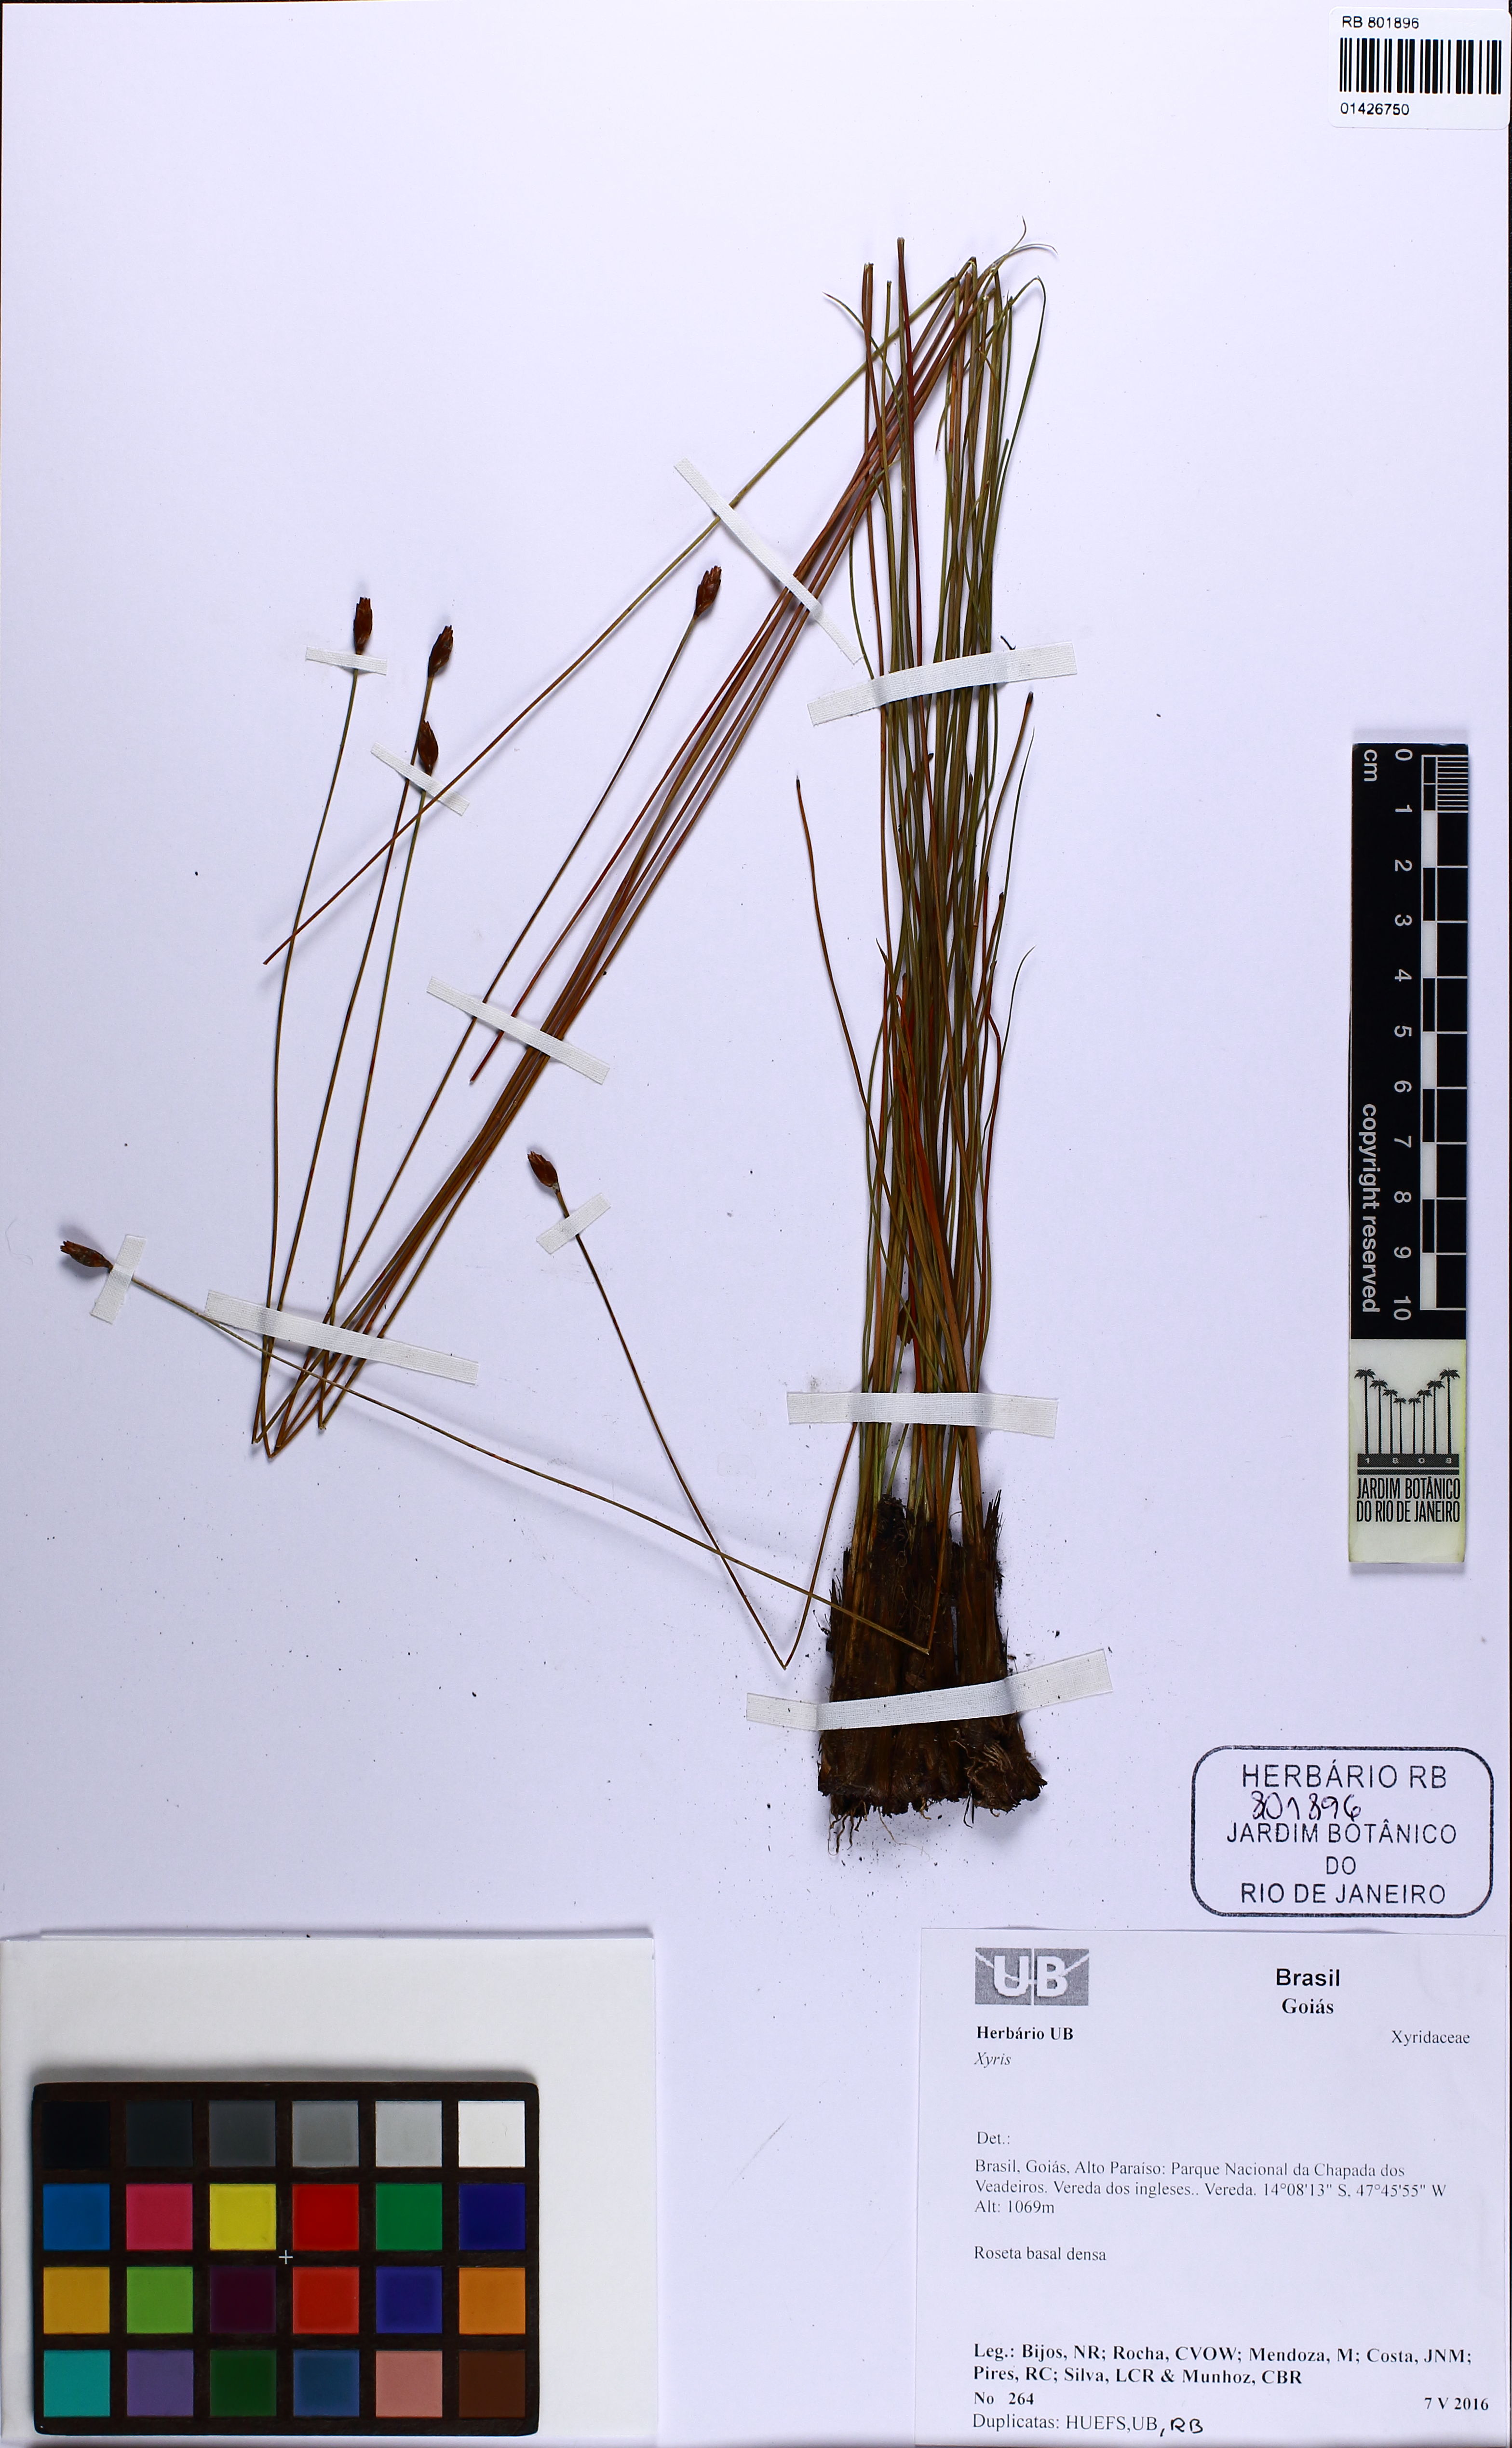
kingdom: Plantae
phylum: Tracheophyta
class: Liliopsida
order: Poales
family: Xyridaceae
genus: Xyris
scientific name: Xyris
